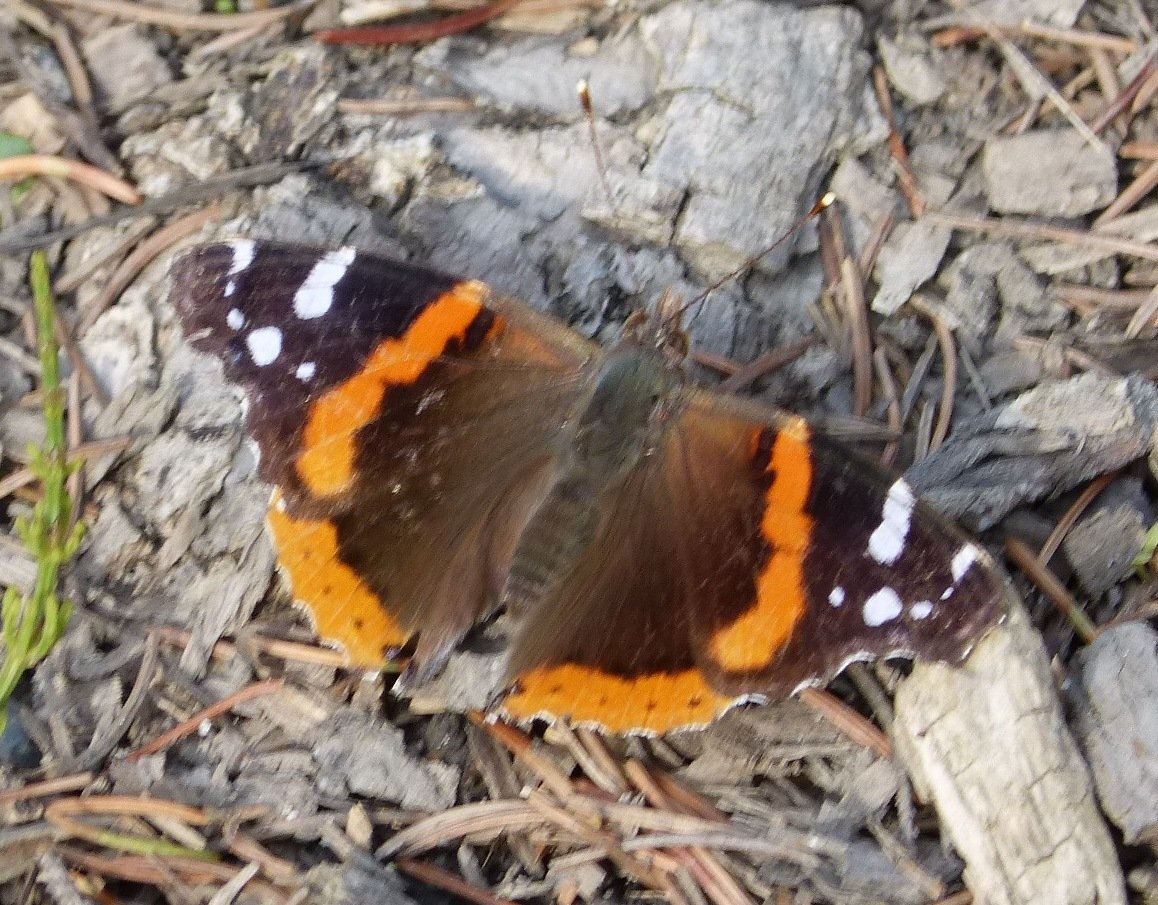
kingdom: Animalia
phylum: Arthropoda
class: Insecta
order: Lepidoptera
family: Nymphalidae
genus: Vanessa
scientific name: Vanessa atalanta
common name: Red Admiral
